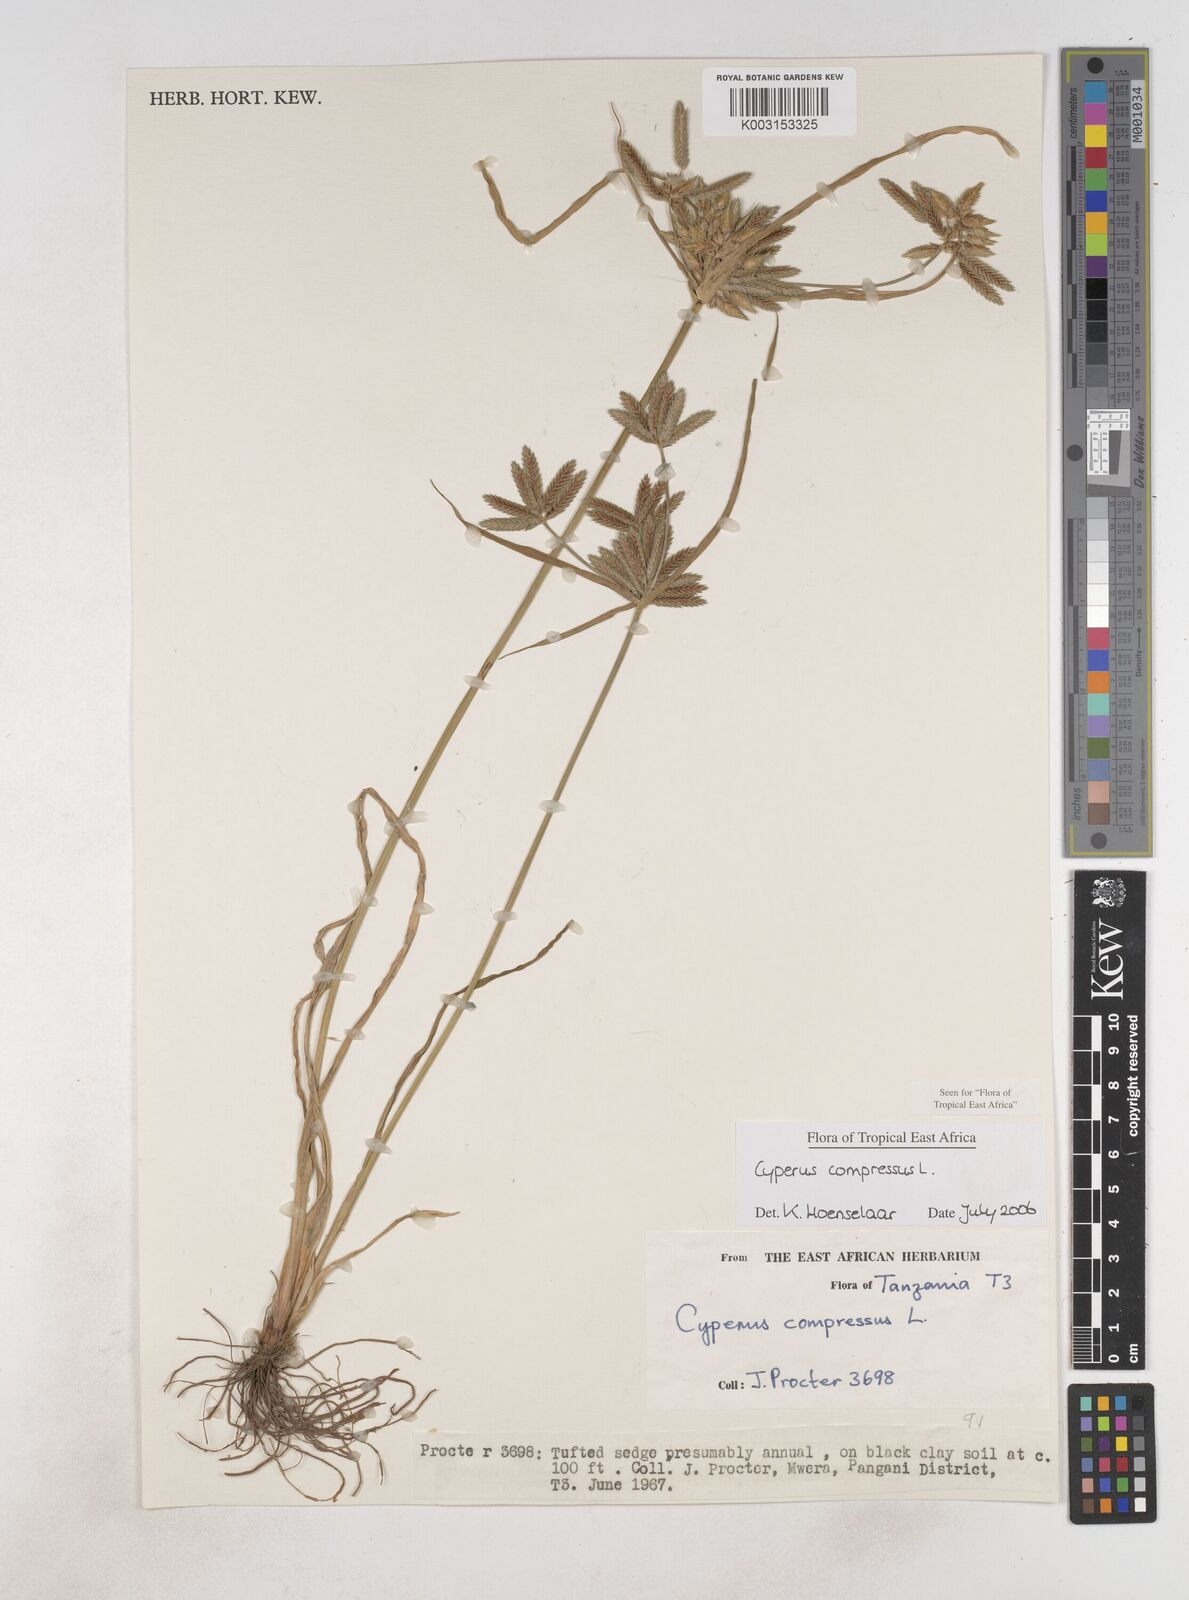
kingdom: Plantae
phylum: Tracheophyta
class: Liliopsida
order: Poales
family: Cyperaceae
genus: Cyperus
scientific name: Cyperus compressus
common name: Poorland flatsedge
